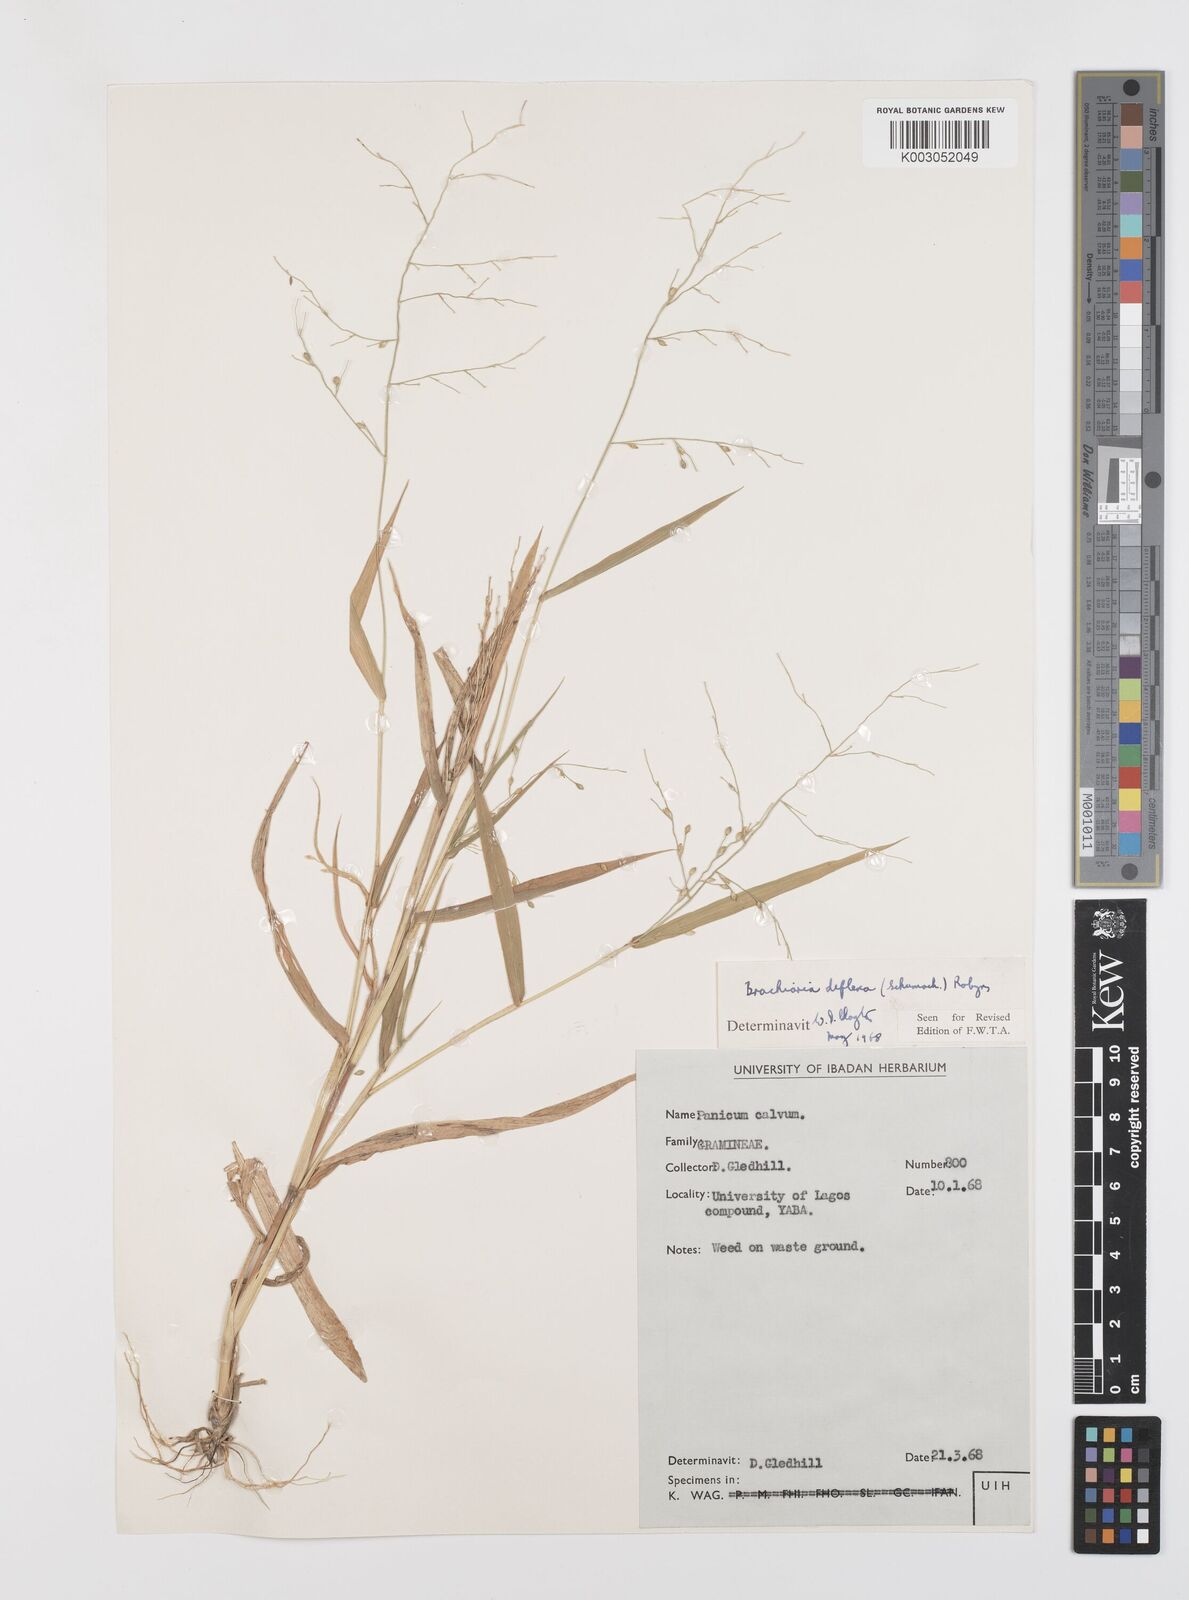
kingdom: Plantae
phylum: Tracheophyta
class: Liliopsida
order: Poales
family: Poaceae
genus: Urochloa
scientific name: Urochloa deflexa
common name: Guinea millet
